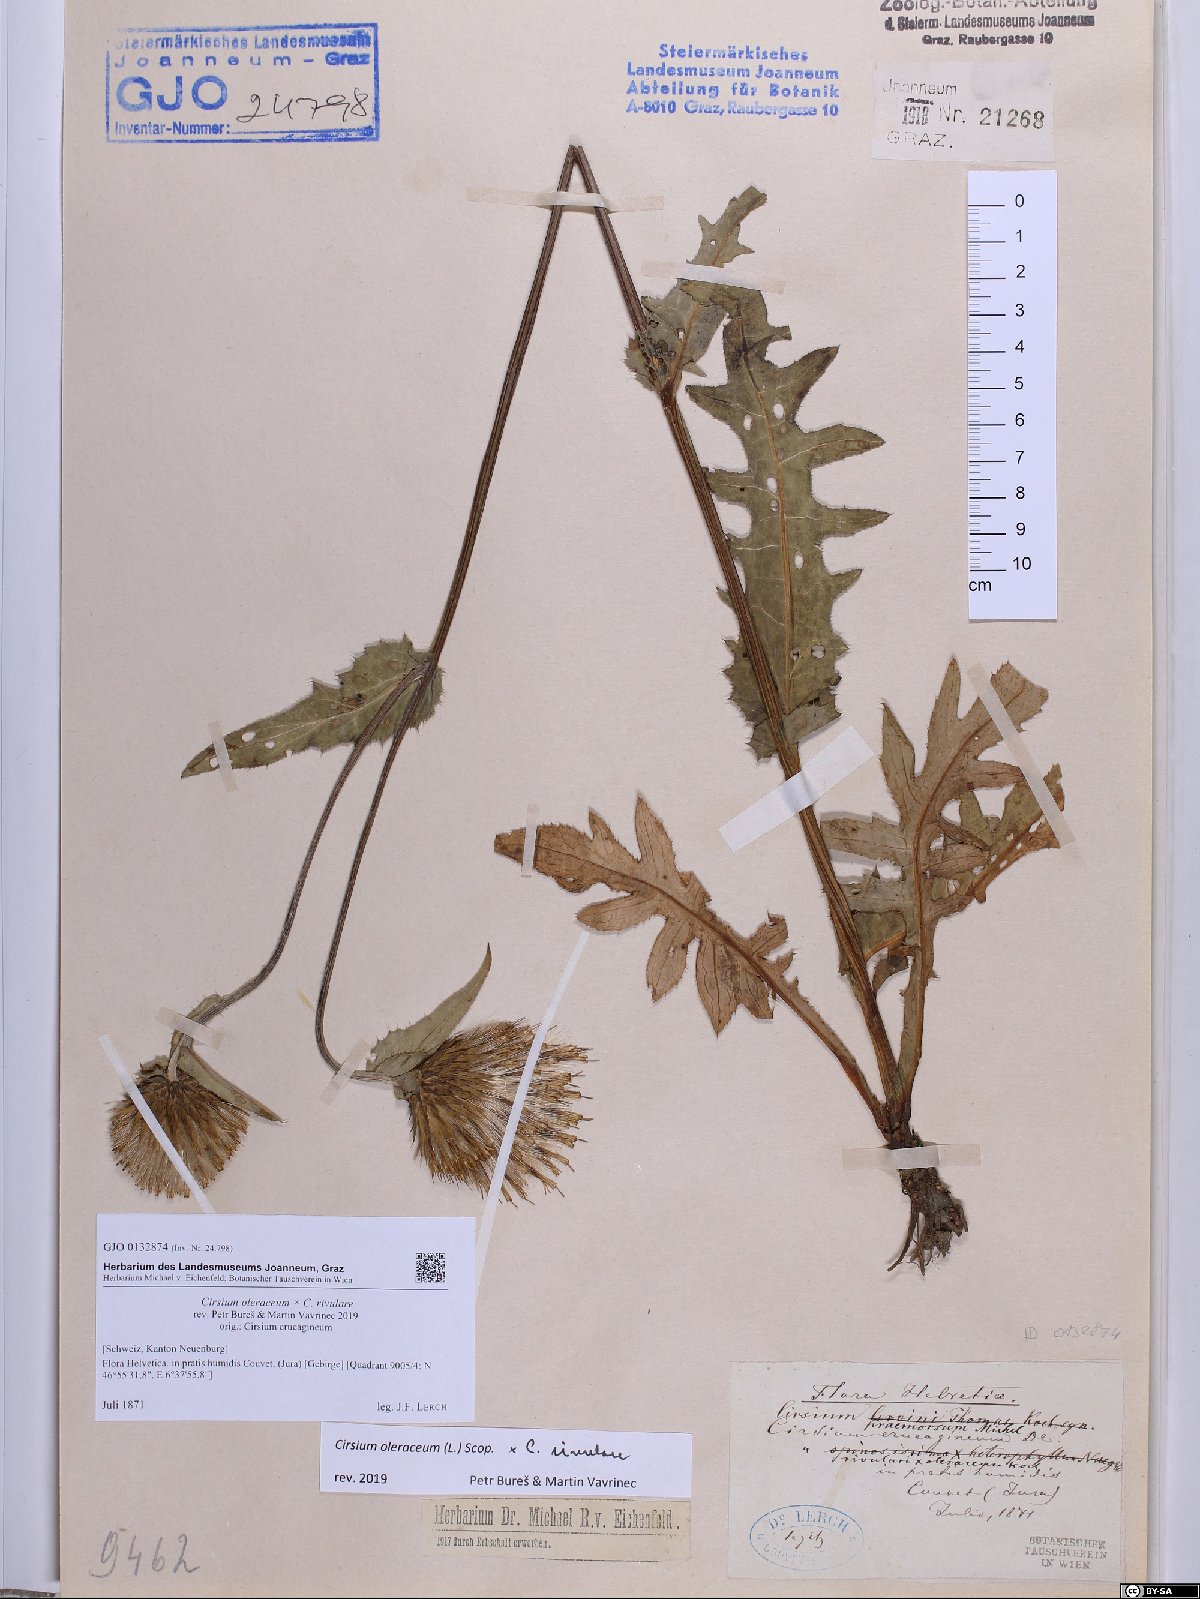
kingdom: Plantae
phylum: Tracheophyta
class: Magnoliopsida
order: Asterales
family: Asteraceae
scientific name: Asteraceae
